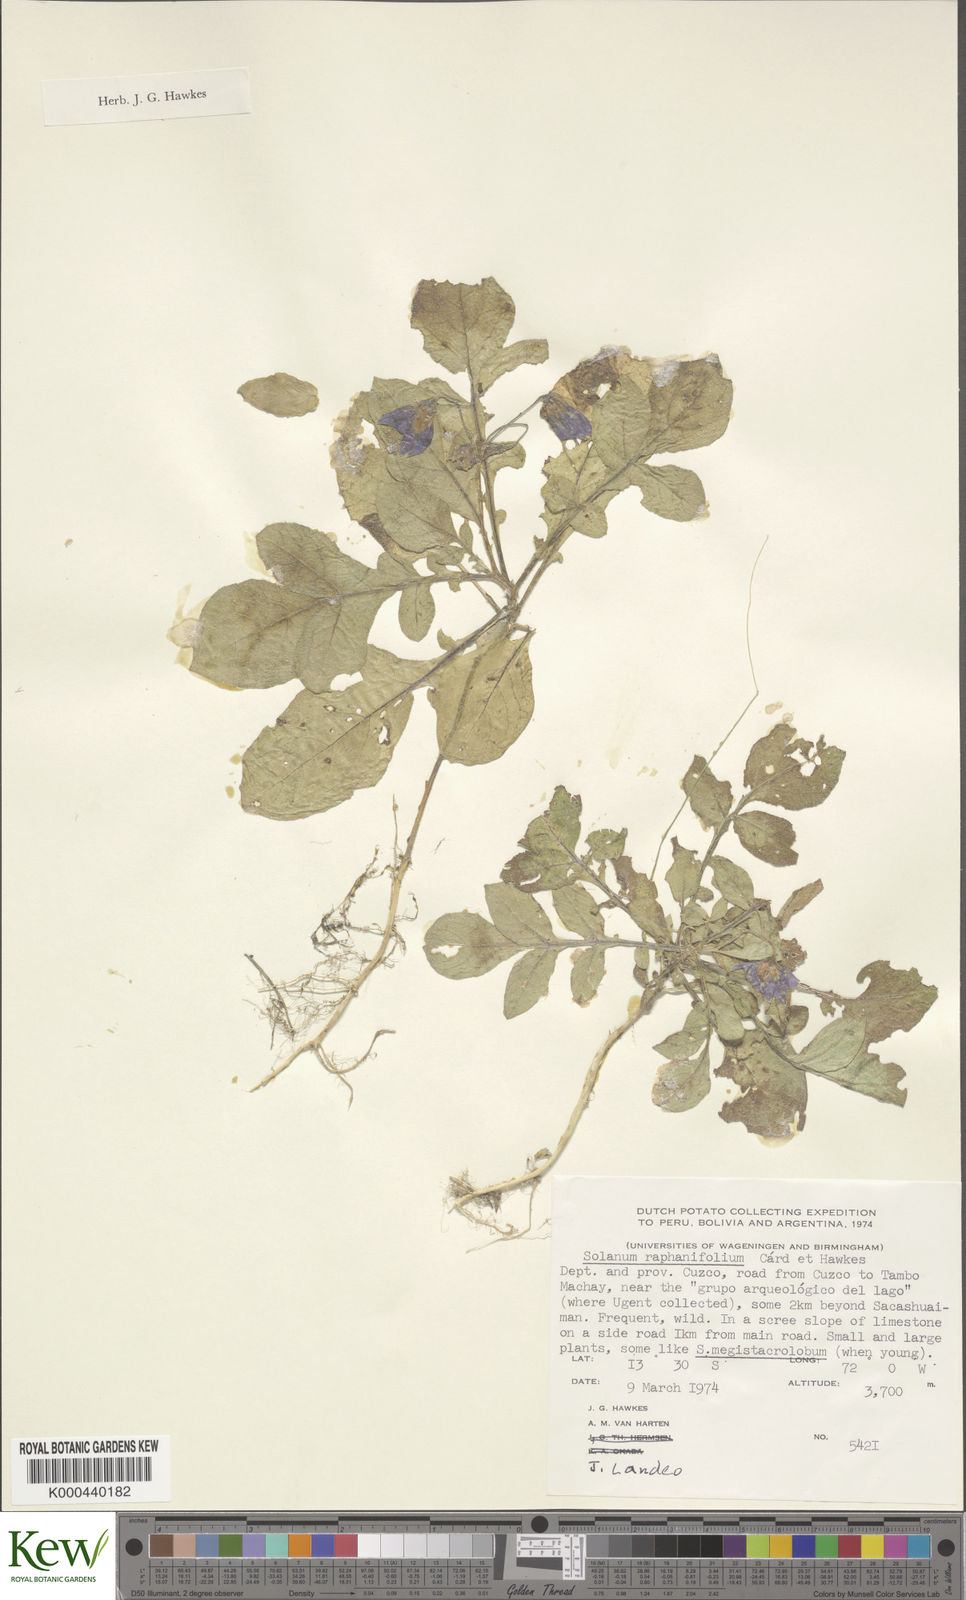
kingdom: Plantae
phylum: Tracheophyta
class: Magnoliopsida
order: Solanales
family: Solanaceae
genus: Solanum
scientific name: Solanum raphanifolium
